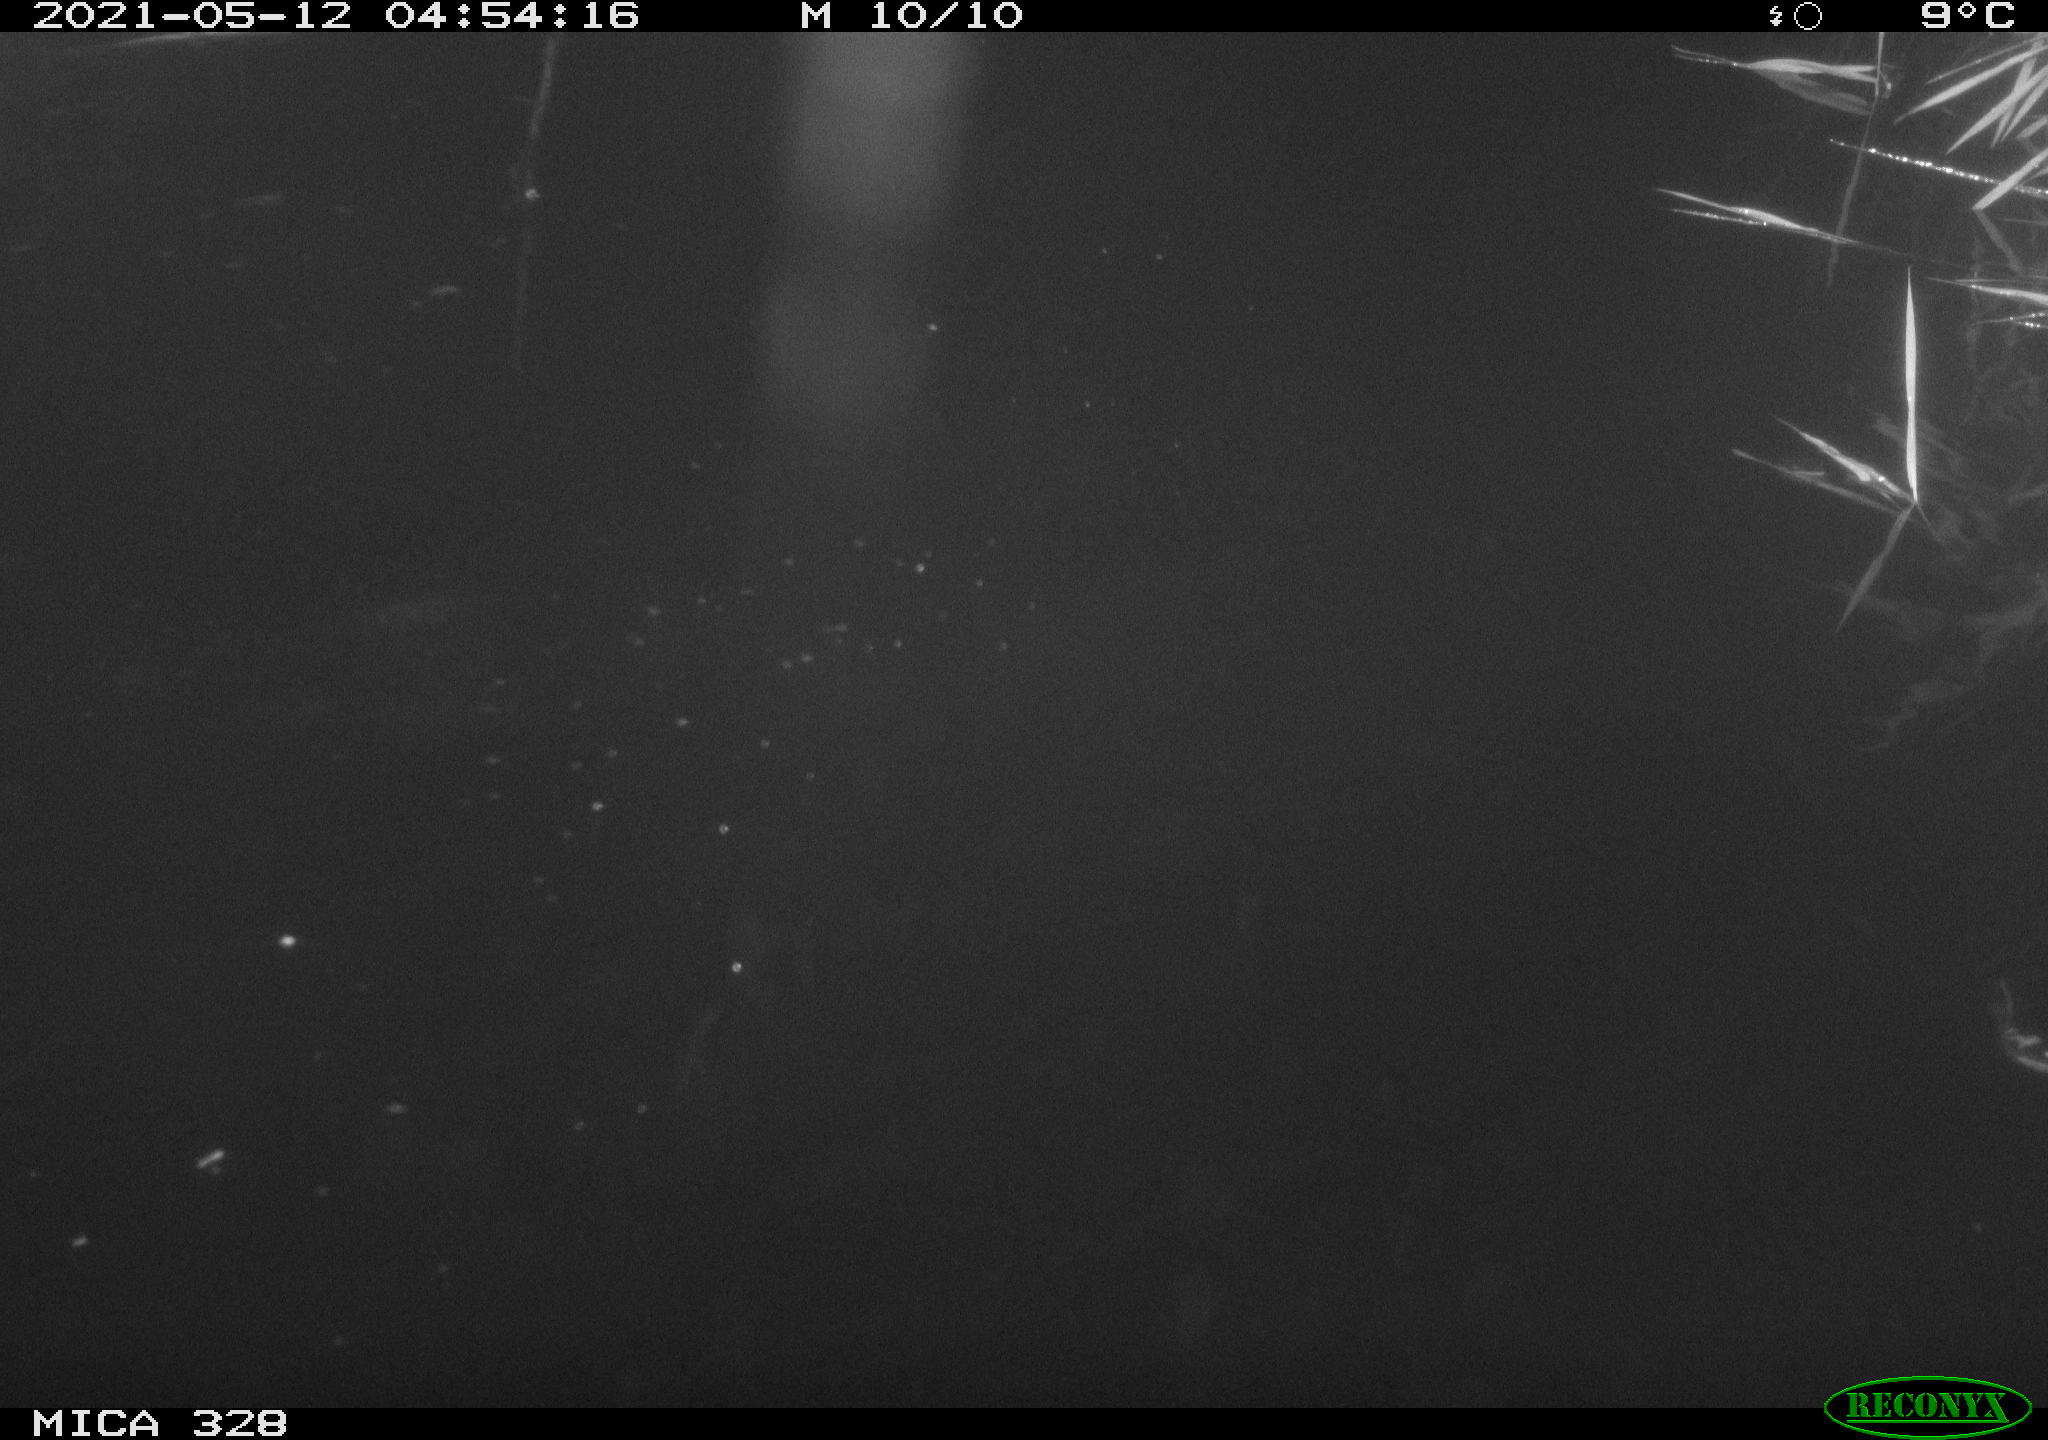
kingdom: Animalia
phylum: Chordata
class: Aves
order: Anseriformes
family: Anatidae
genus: Anas
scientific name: Anas platyrhynchos
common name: Mallard
